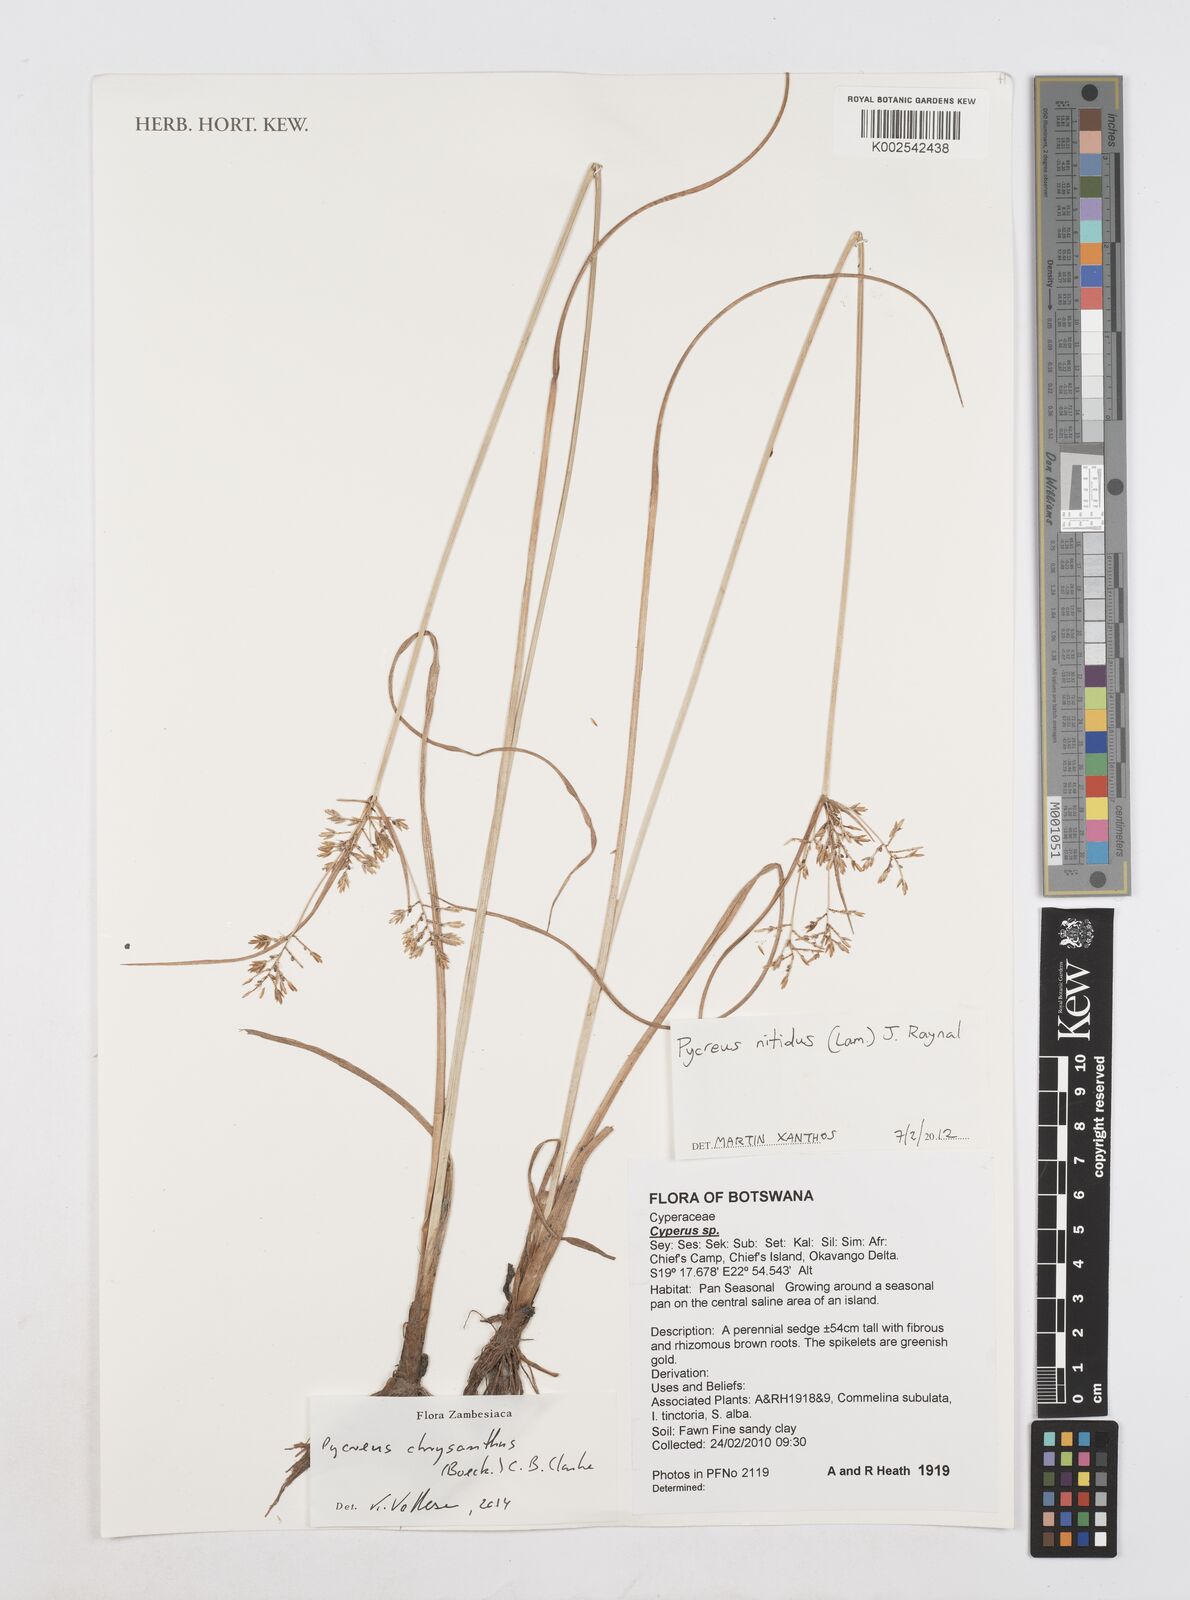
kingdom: Plantae
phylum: Tracheophyta
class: Liliopsida
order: Poales
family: Cyperaceae
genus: Cyperus
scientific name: Cyperus chrysanthus
